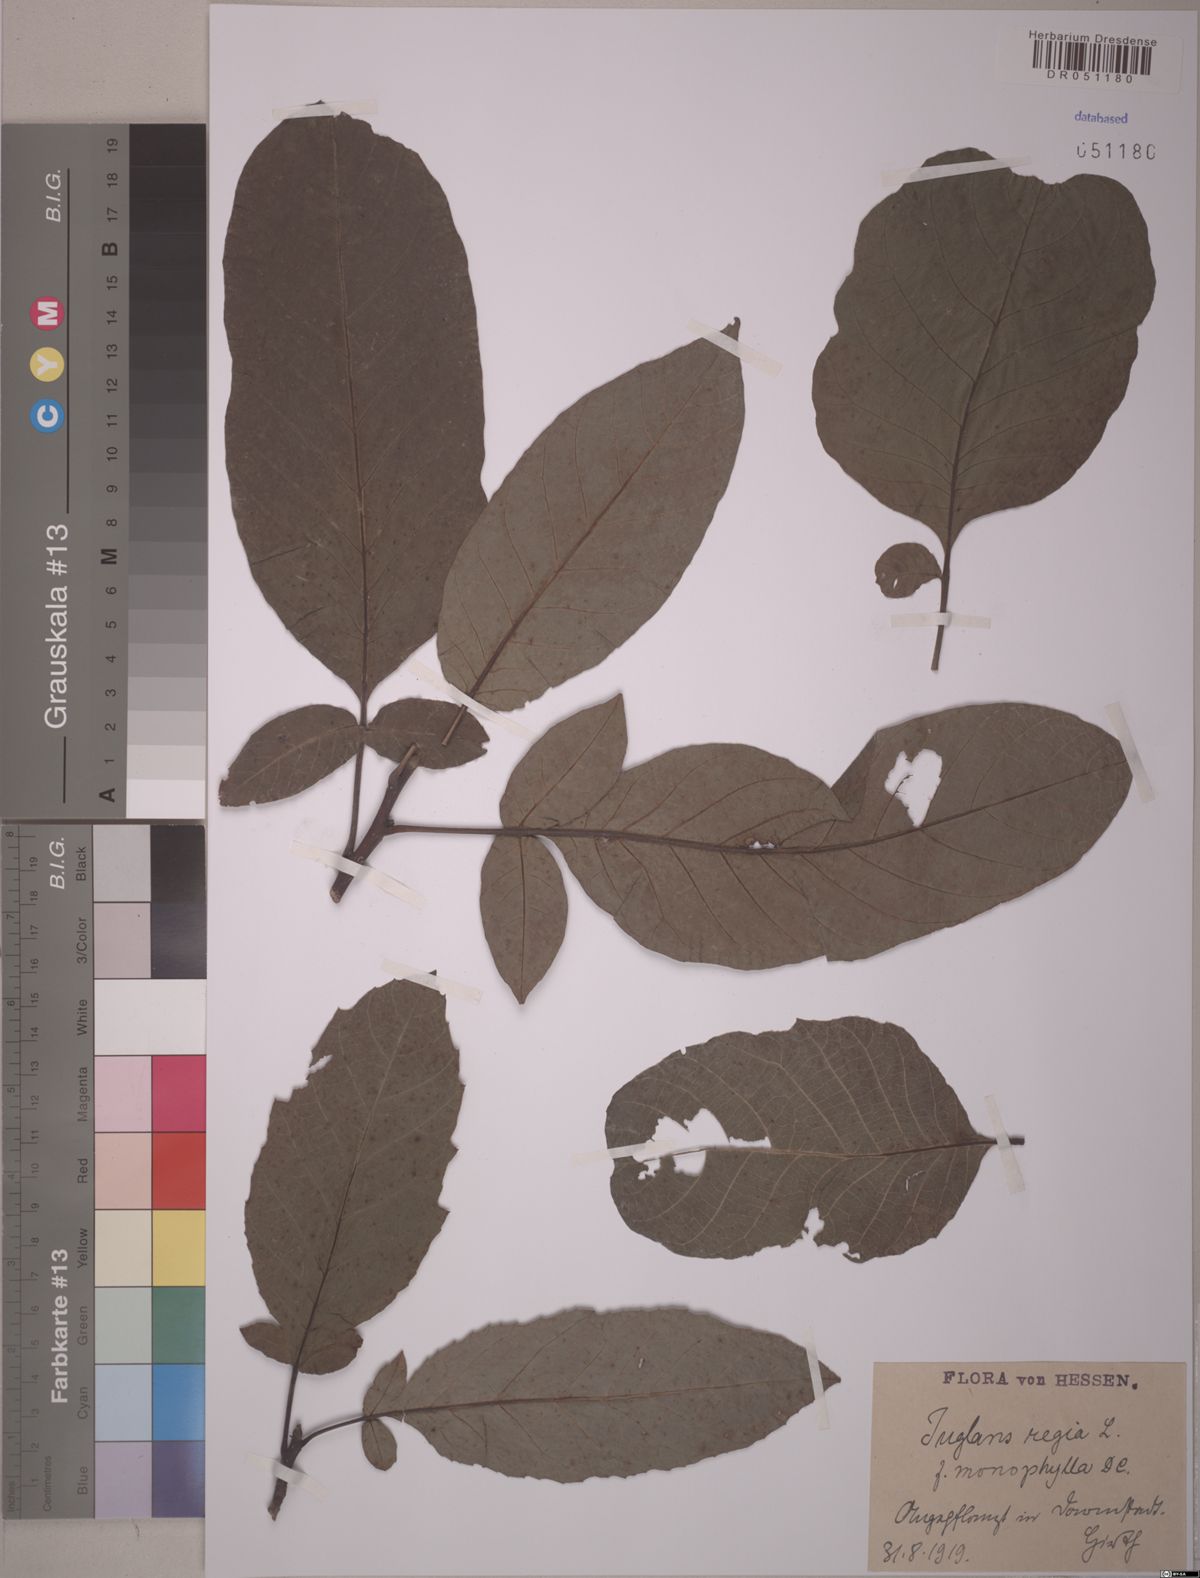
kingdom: Plantae
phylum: Tracheophyta
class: Magnoliopsida
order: Fagales
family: Juglandaceae
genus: Juglans
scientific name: Juglans regia
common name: Walnut
